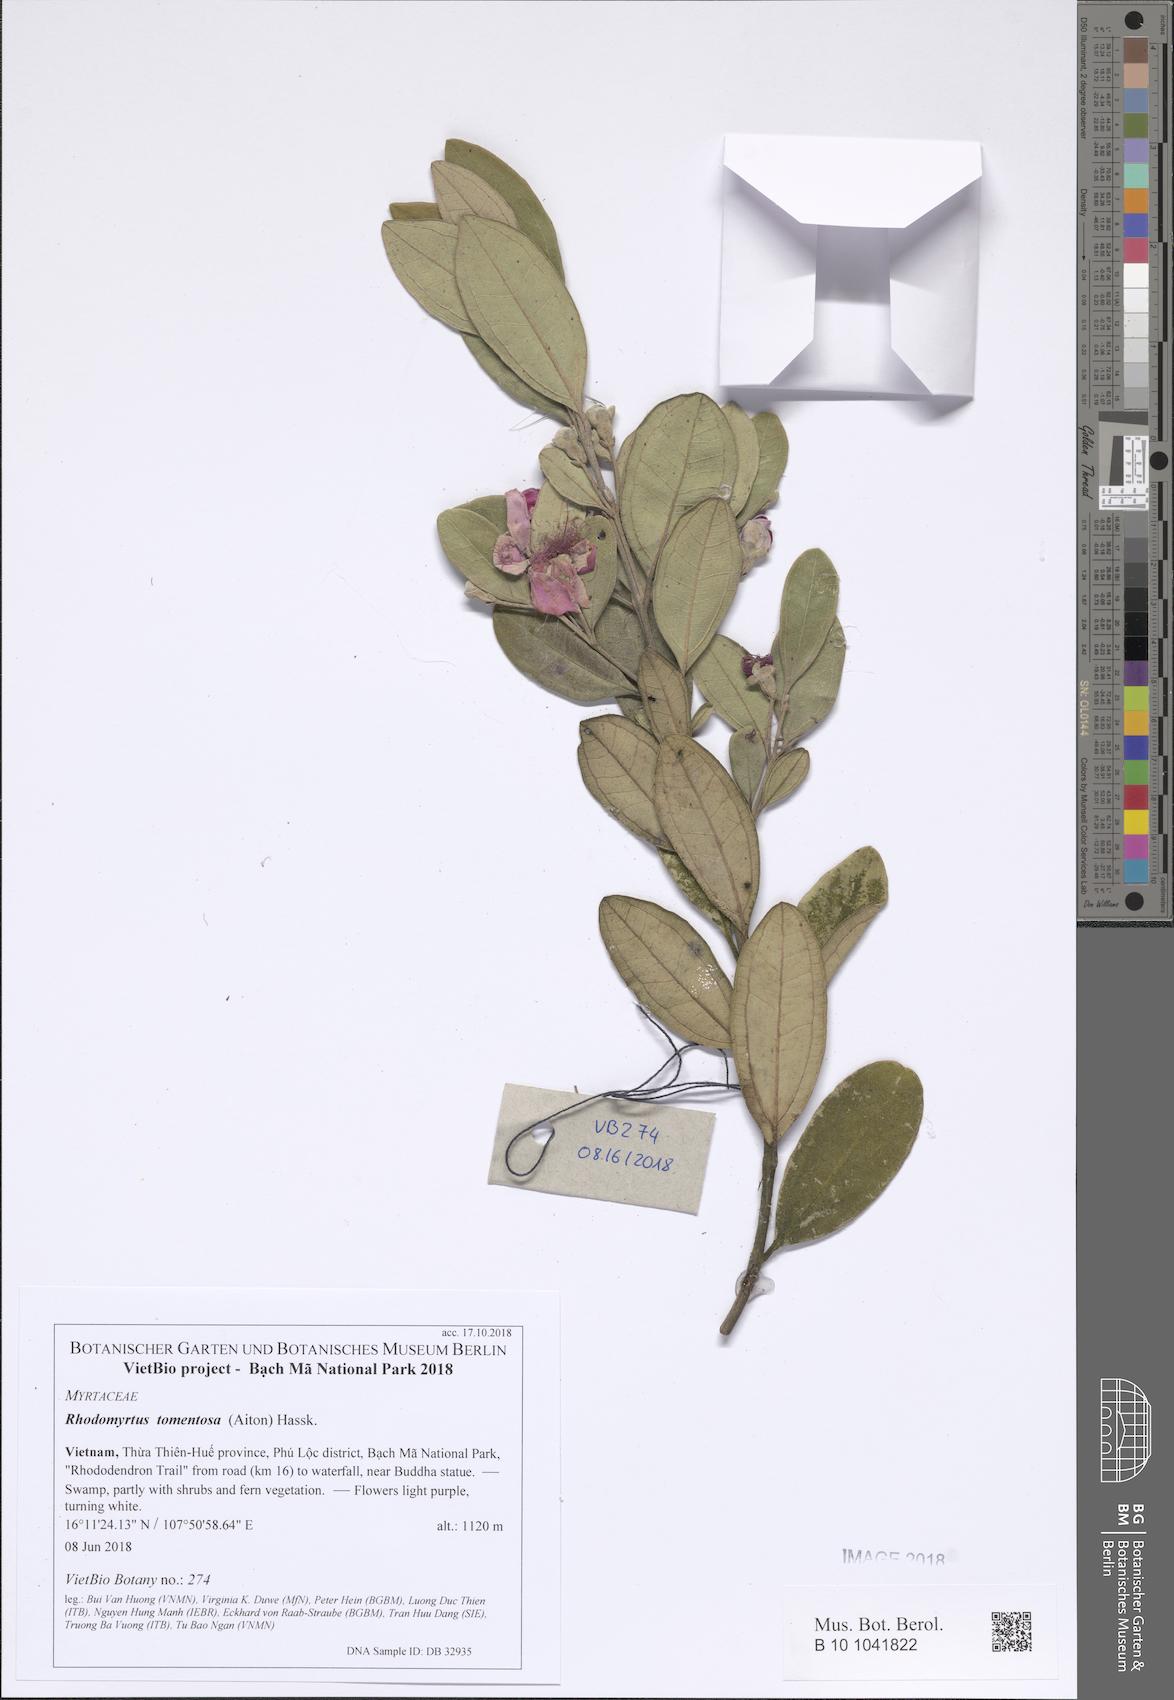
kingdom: Plantae
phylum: Tracheophyta
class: Magnoliopsida
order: Myrtales
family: Myrtaceae
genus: Rhodomyrtus
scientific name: Rhodomyrtus tomentosa
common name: Rose myrtle
